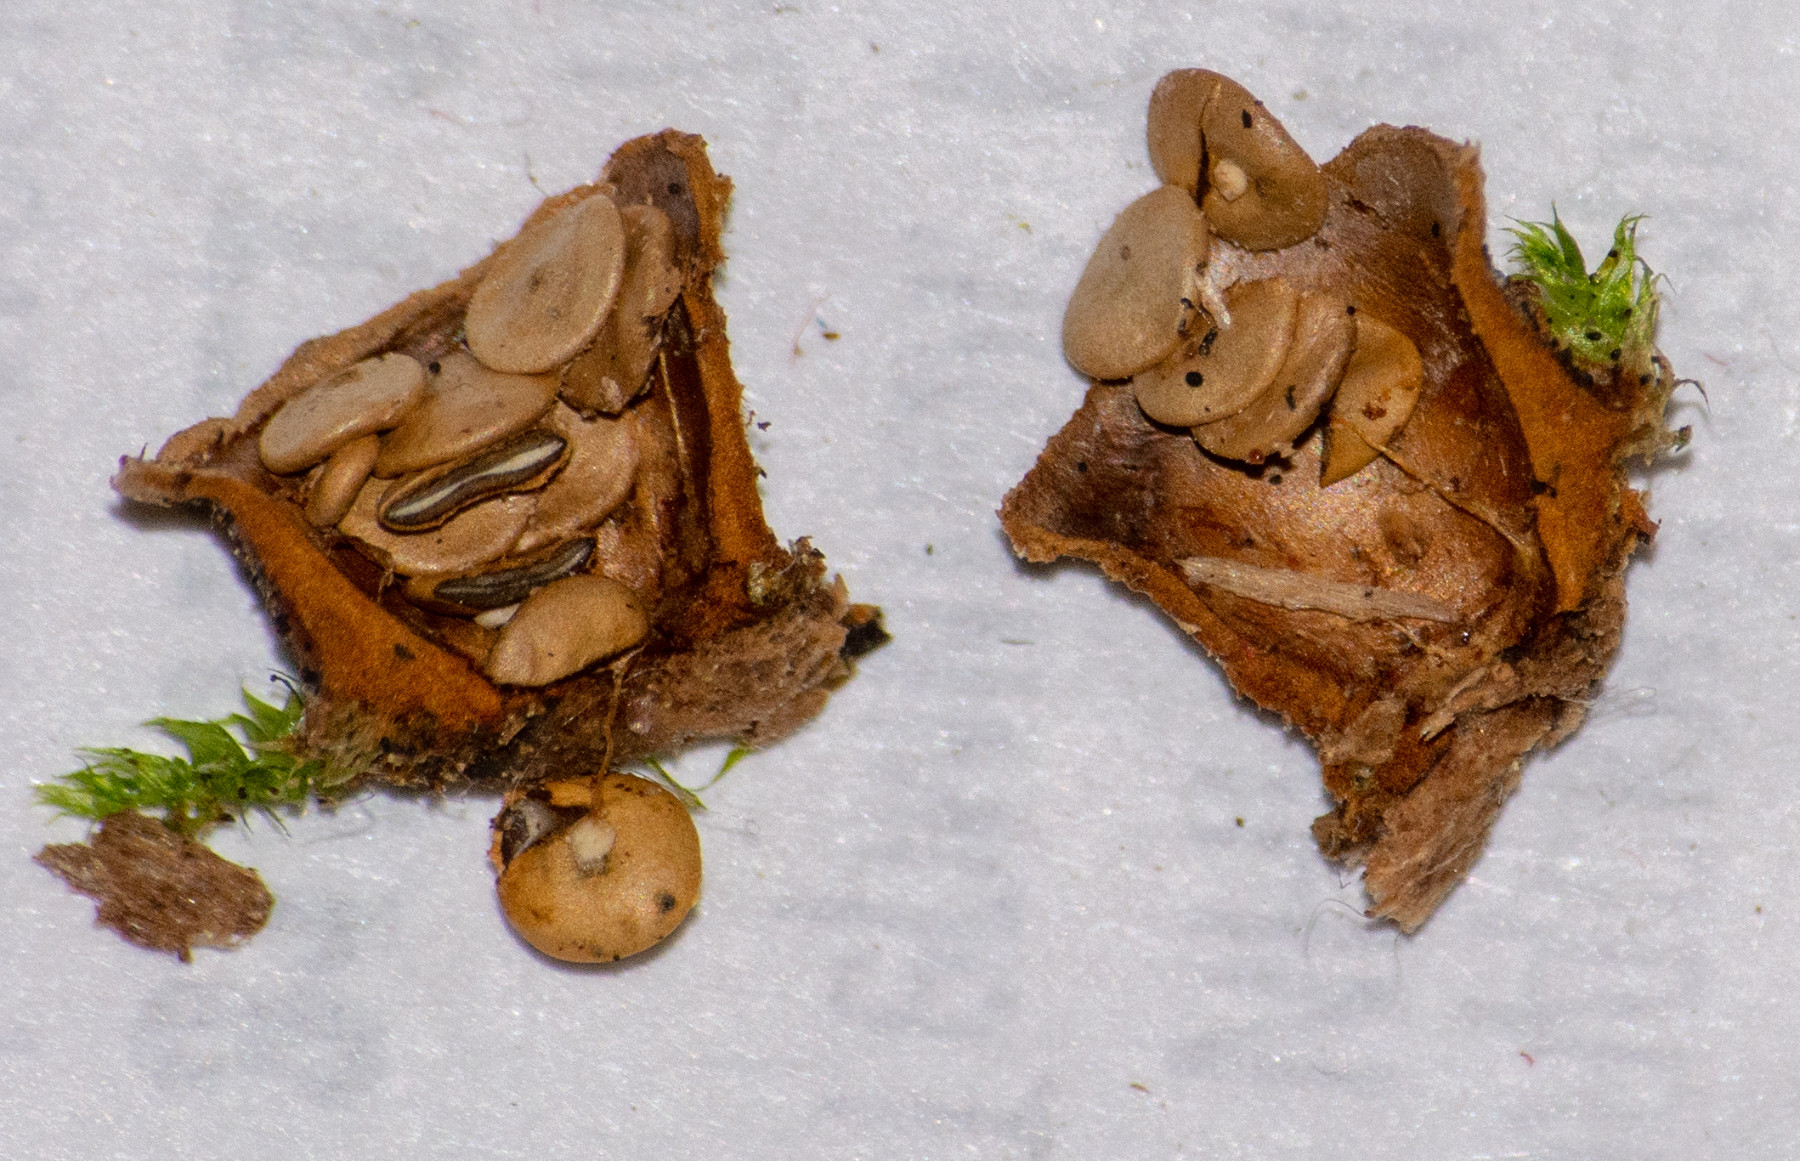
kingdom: Fungi
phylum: Basidiomycota
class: Agaricomycetes
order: Agaricales
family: Nidulariaceae
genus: Crucibulum
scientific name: Crucibulum crucibuliforme
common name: krukkesvamp
